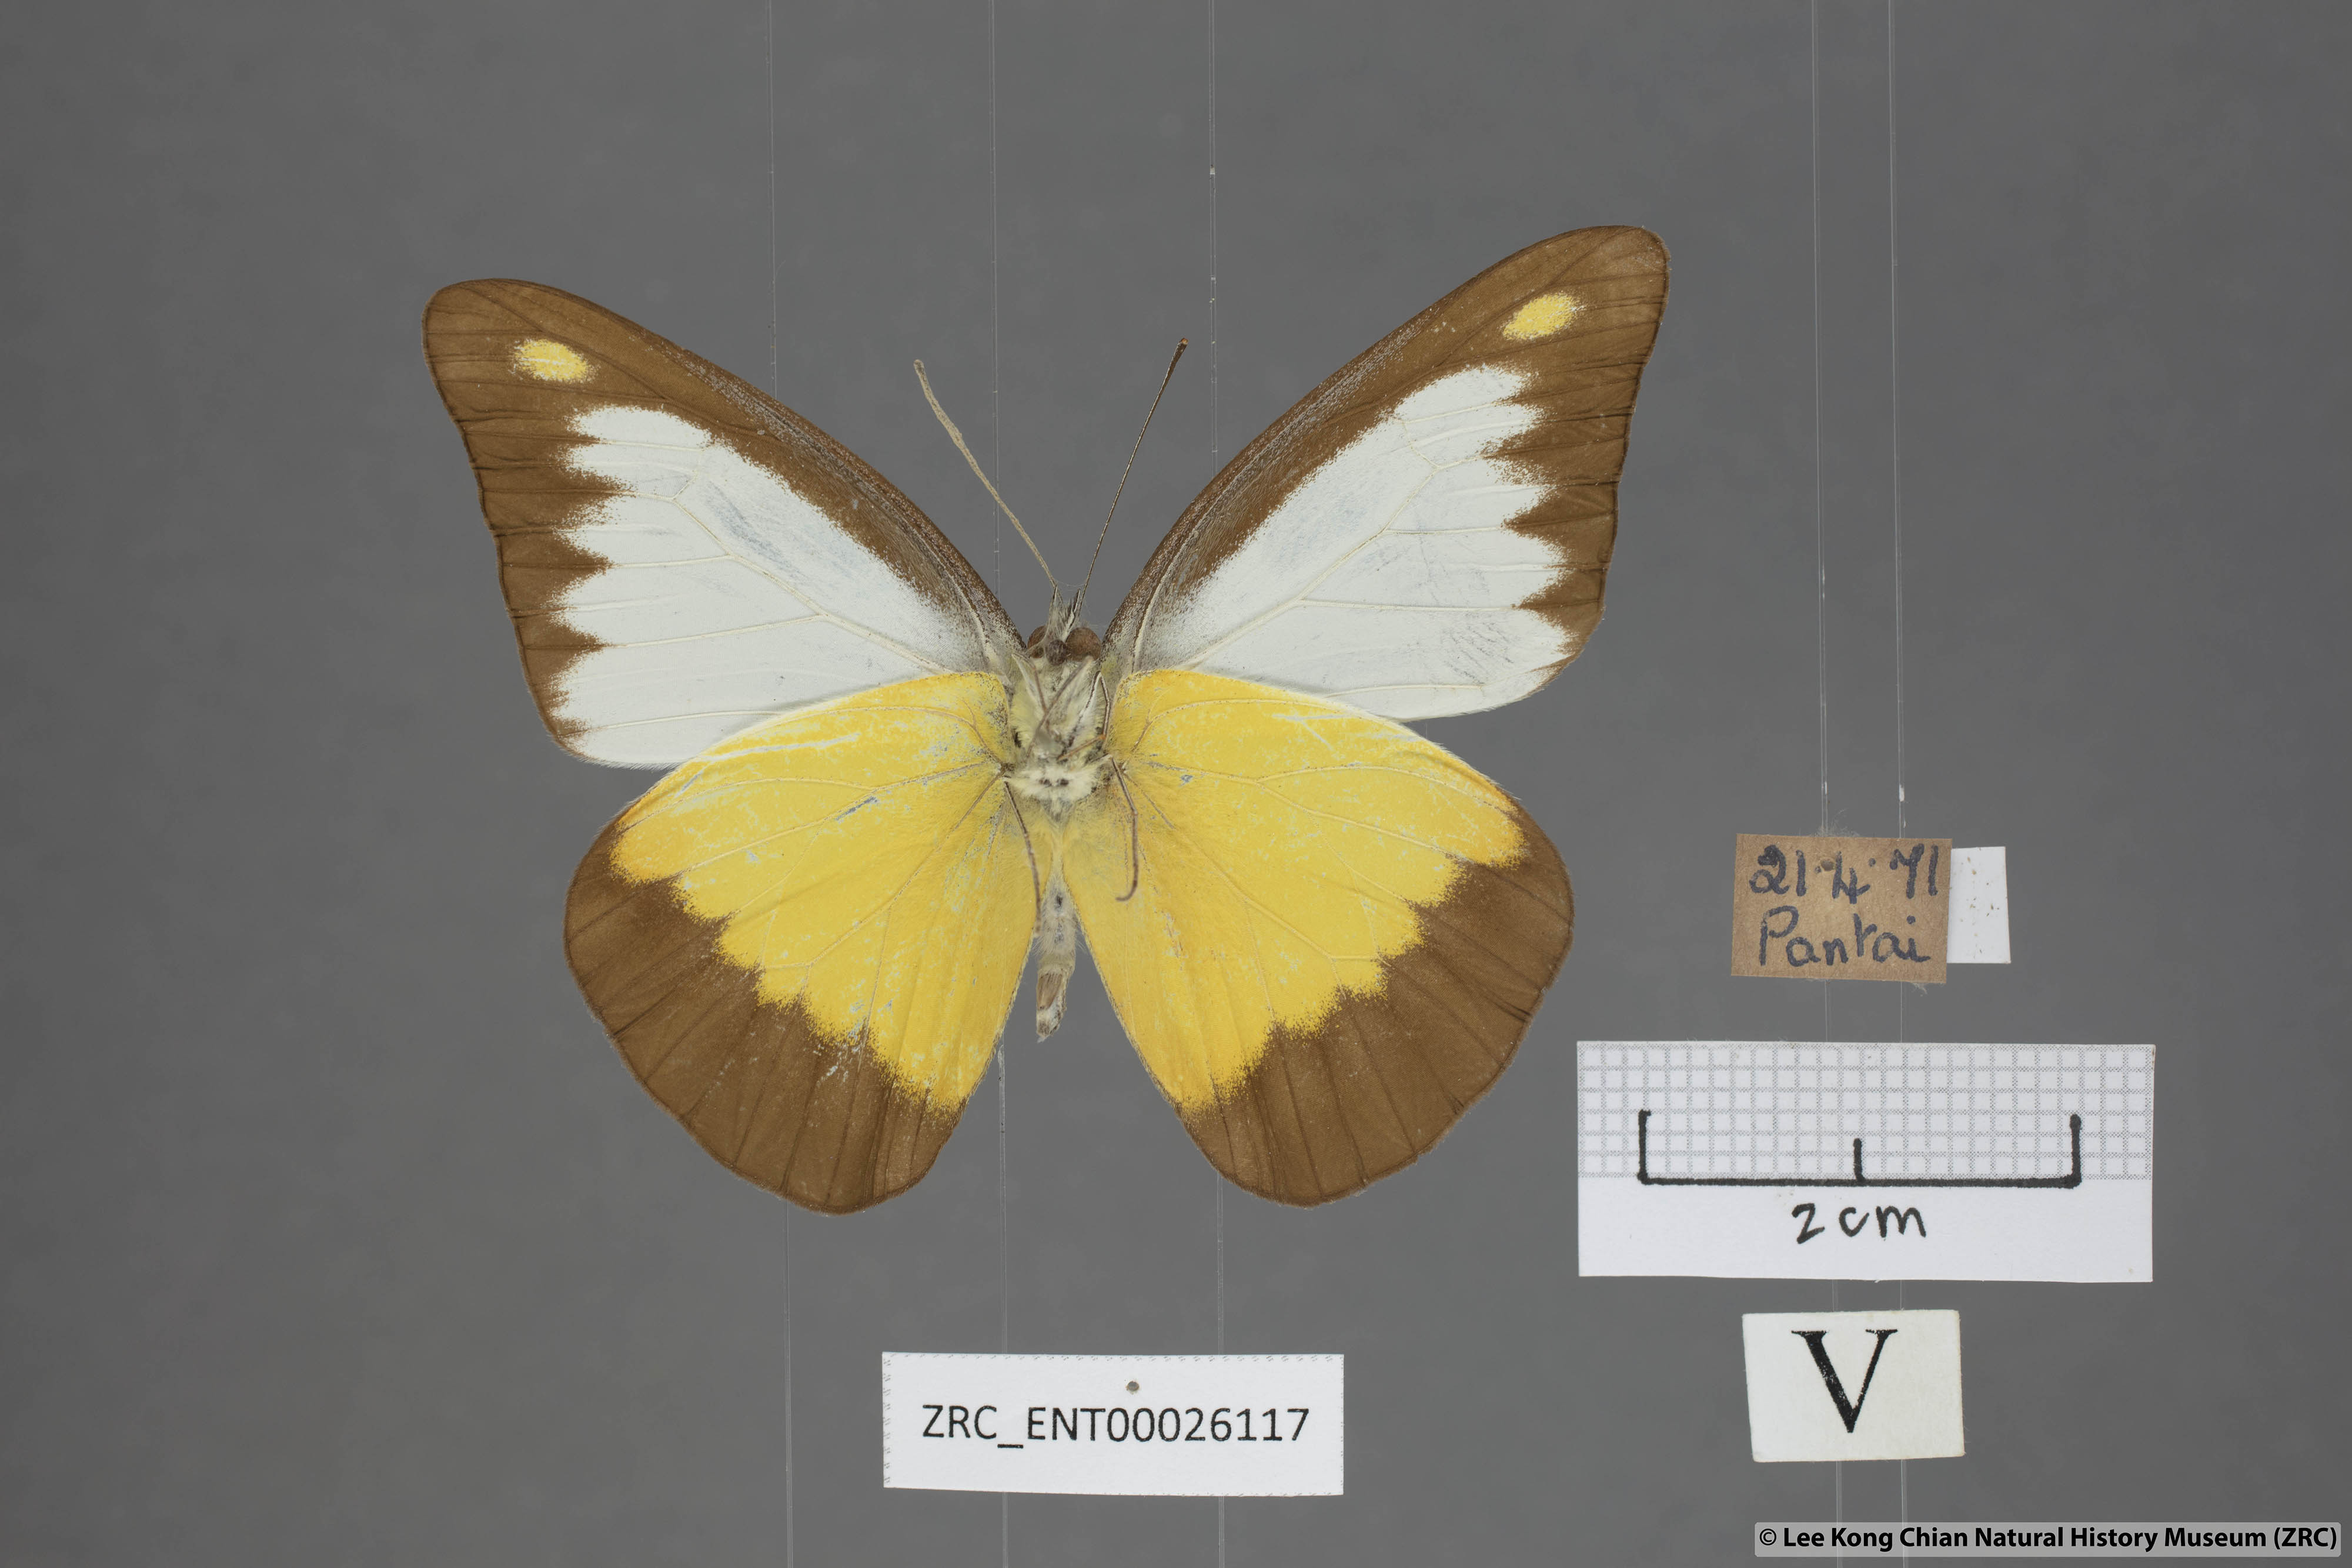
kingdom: Animalia
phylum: Arthropoda
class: Insecta
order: Lepidoptera
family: Pieridae
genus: Appias
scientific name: Appias lyncida
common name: Chocolate albatross
